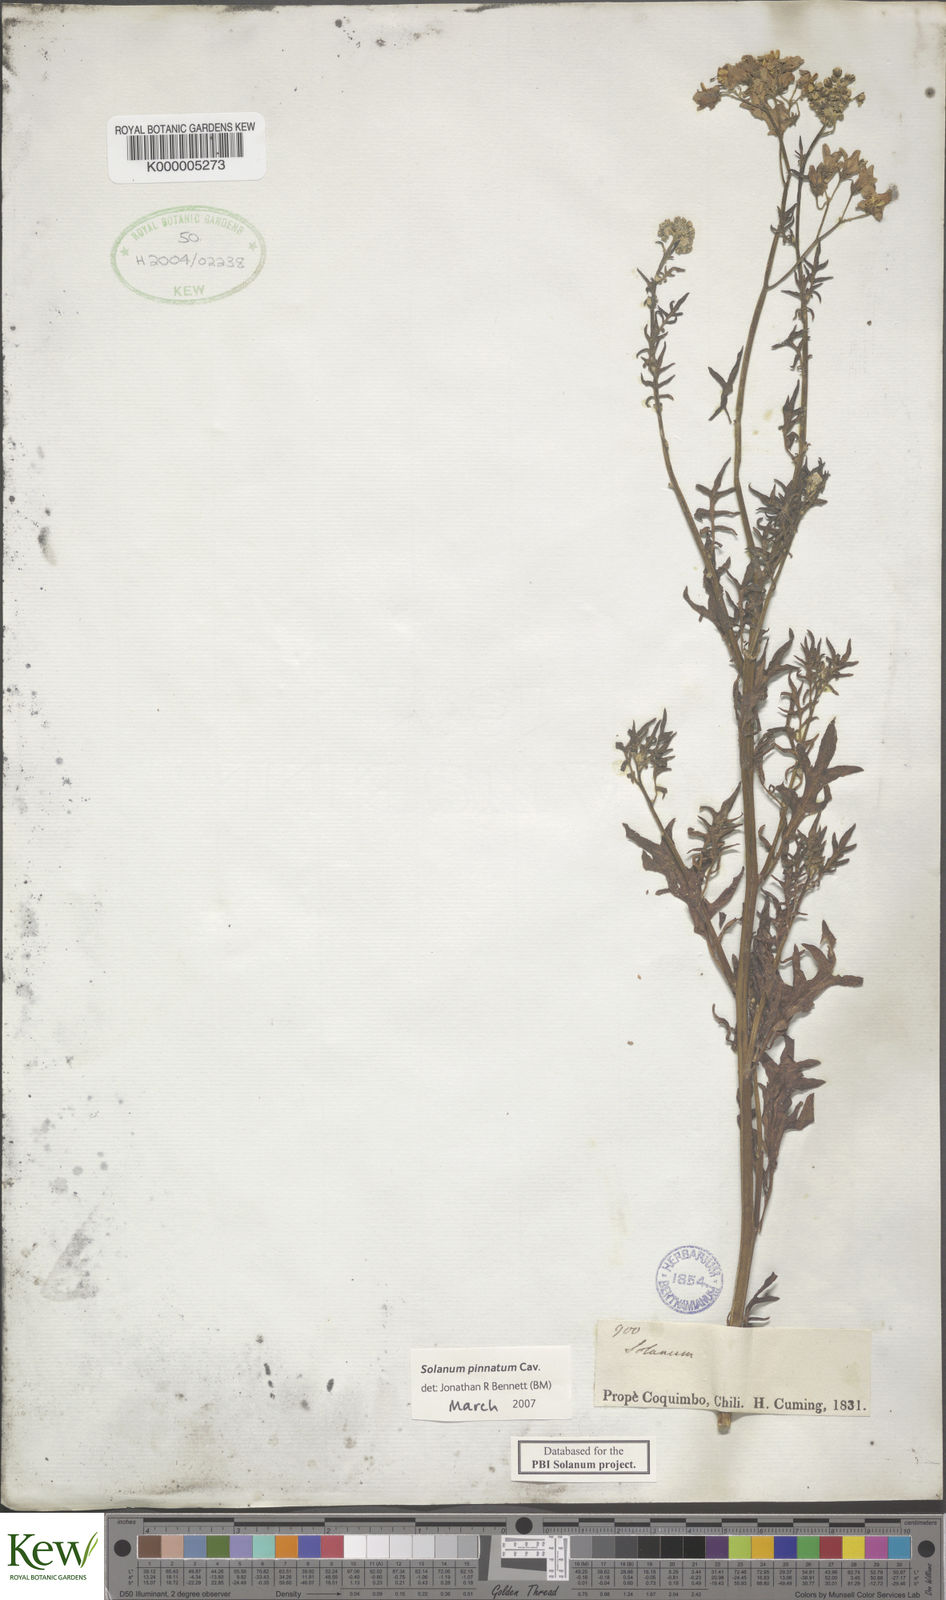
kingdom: Plantae
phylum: Tracheophyta
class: Magnoliopsida
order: Solanales
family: Solanaceae
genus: Solanum
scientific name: Solanum pinnatum
